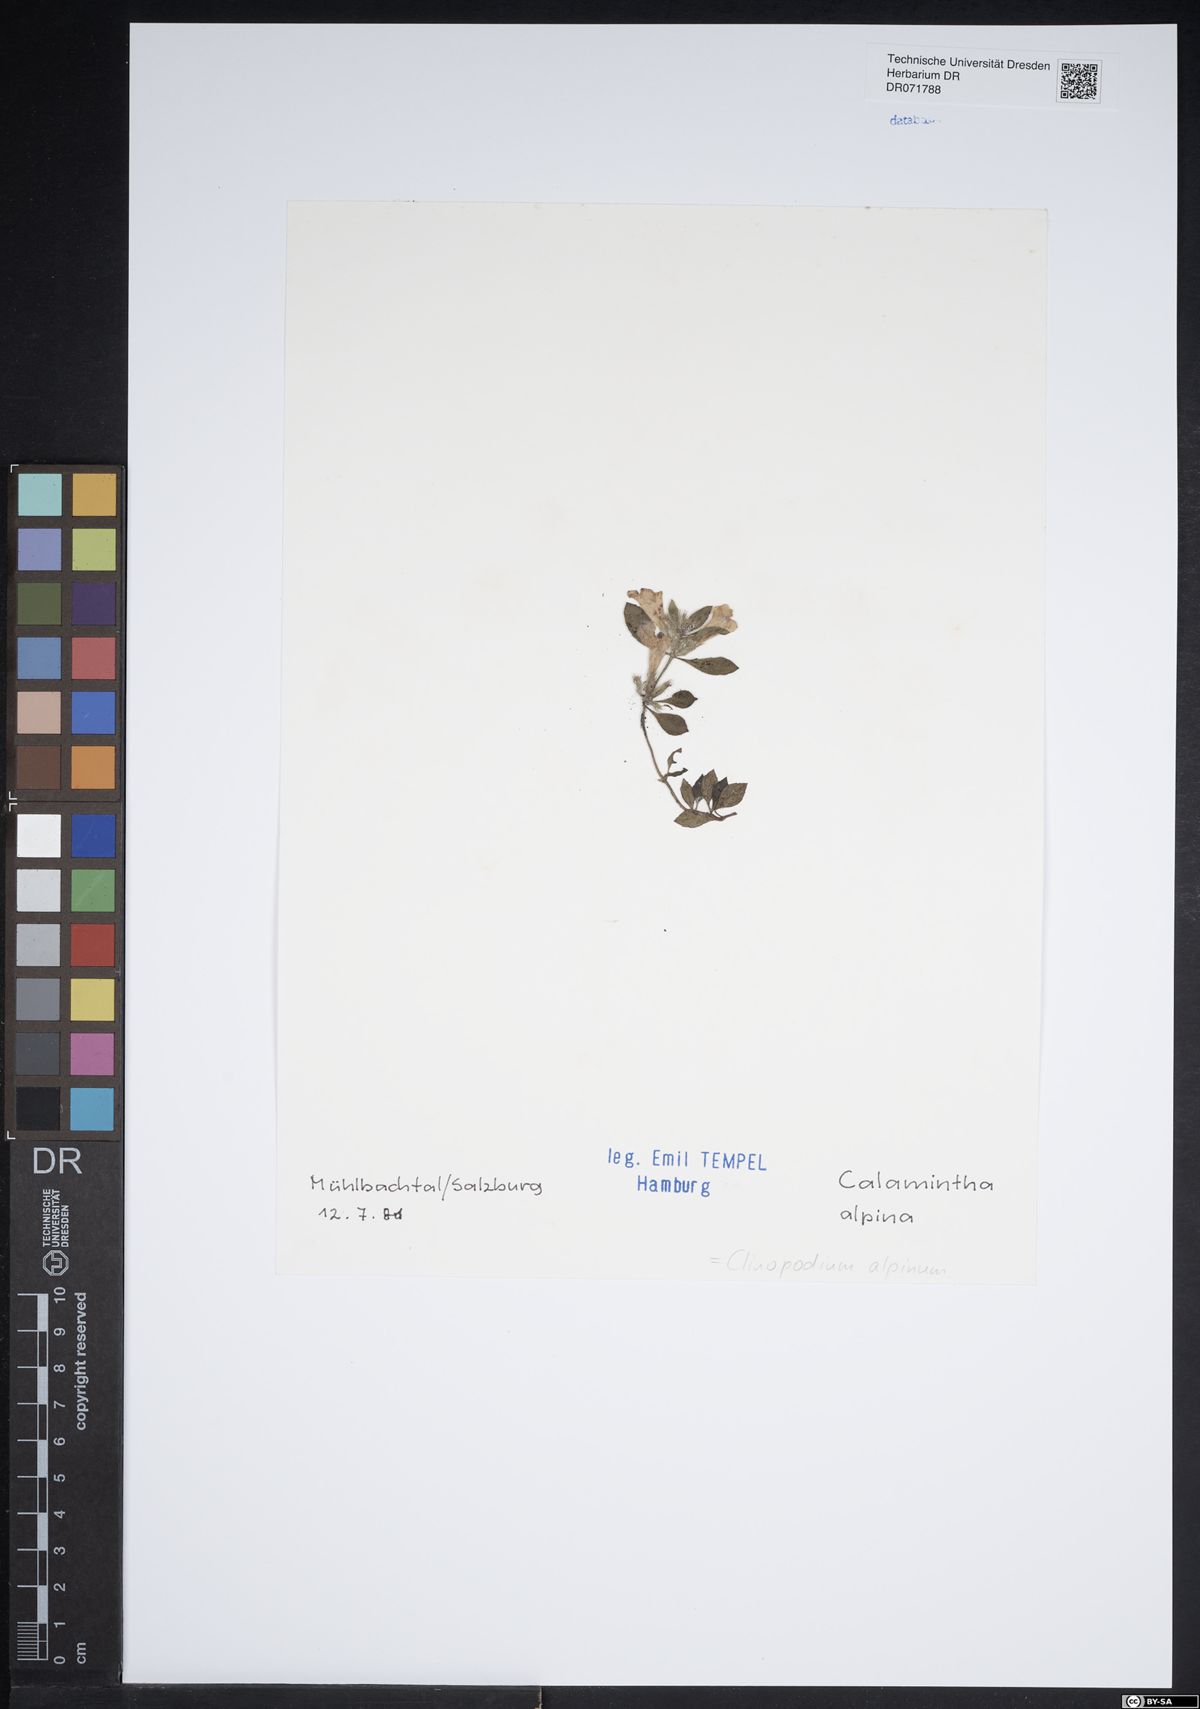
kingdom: Plantae
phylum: Tracheophyta
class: Magnoliopsida
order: Lamiales
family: Lamiaceae
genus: Clinopodium
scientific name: Clinopodium alpinum
